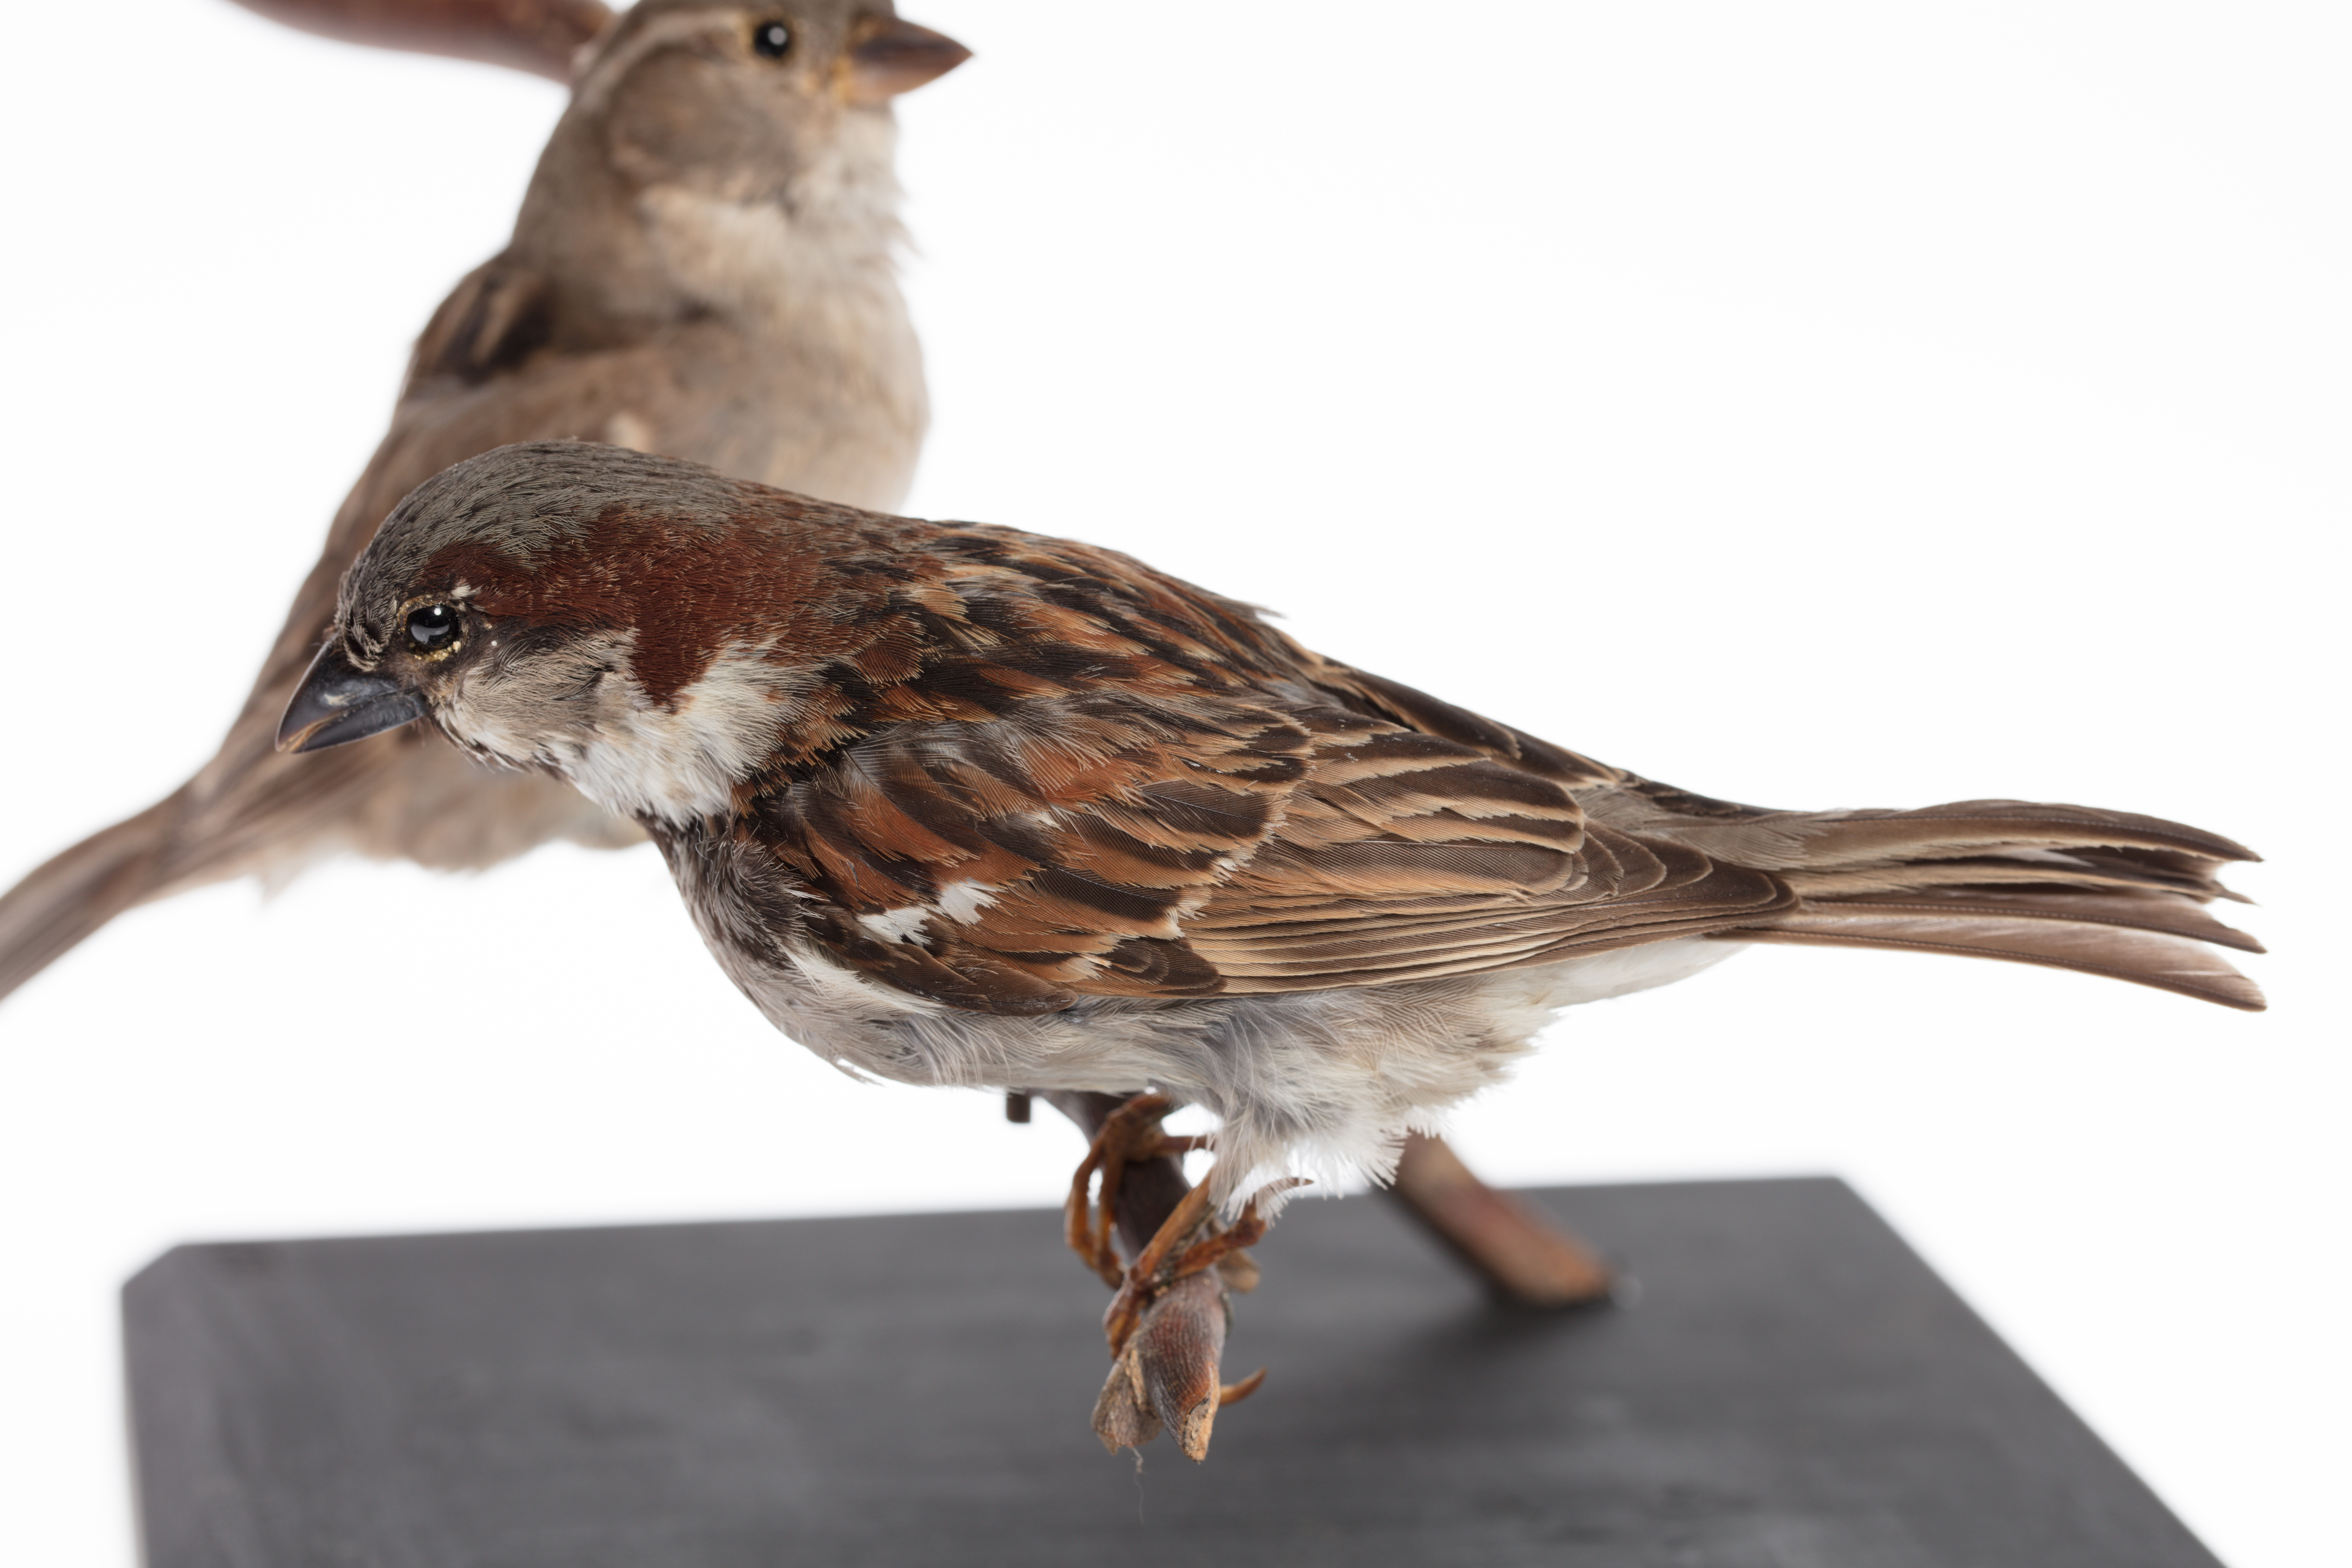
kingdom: Animalia
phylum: Chordata
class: Aves
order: Passeriformes
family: Passeridae
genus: Passer
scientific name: Passer domesticus
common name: House sparrow
